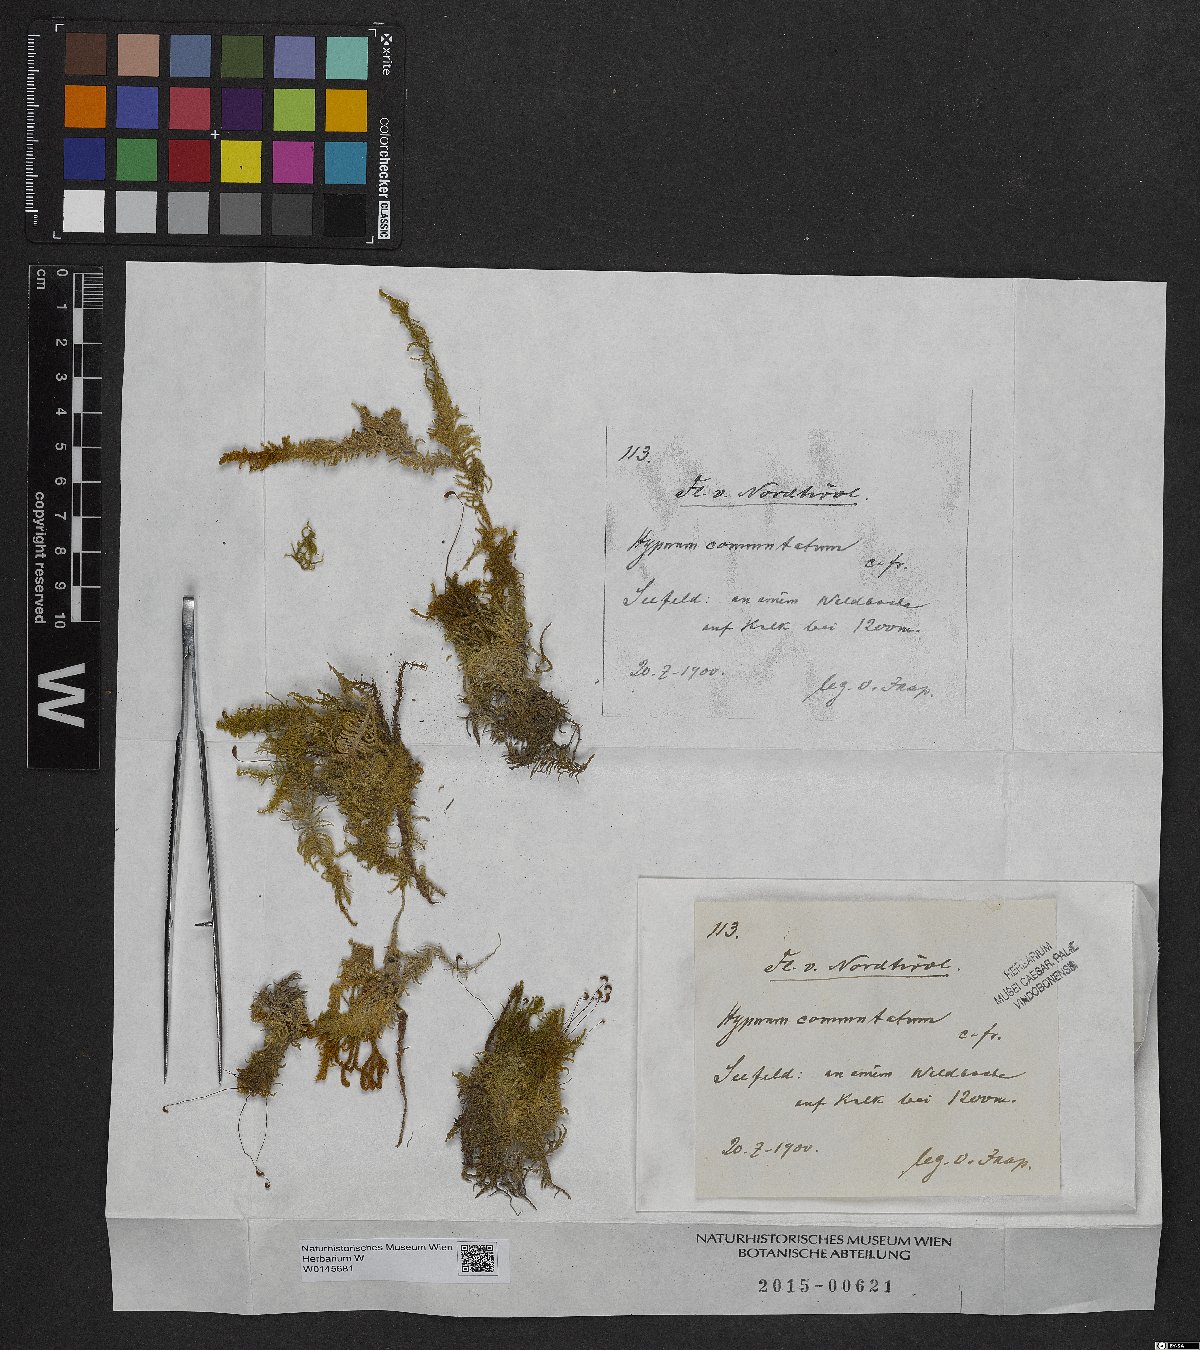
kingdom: Plantae
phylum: Bryophyta
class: Bryopsida
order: Hypnales
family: Amblystegiaceae
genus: Palustriella
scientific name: Palustriella commutata
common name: Curled hook-moss
